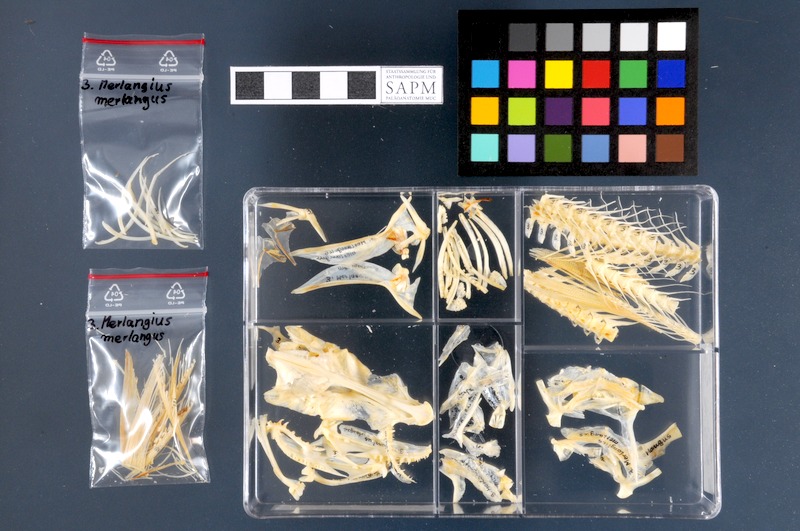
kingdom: Animalia
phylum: Chordata
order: Gadiformes
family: Gadidae
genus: Merlangius
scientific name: Merlangius merlangus
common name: Whiting
